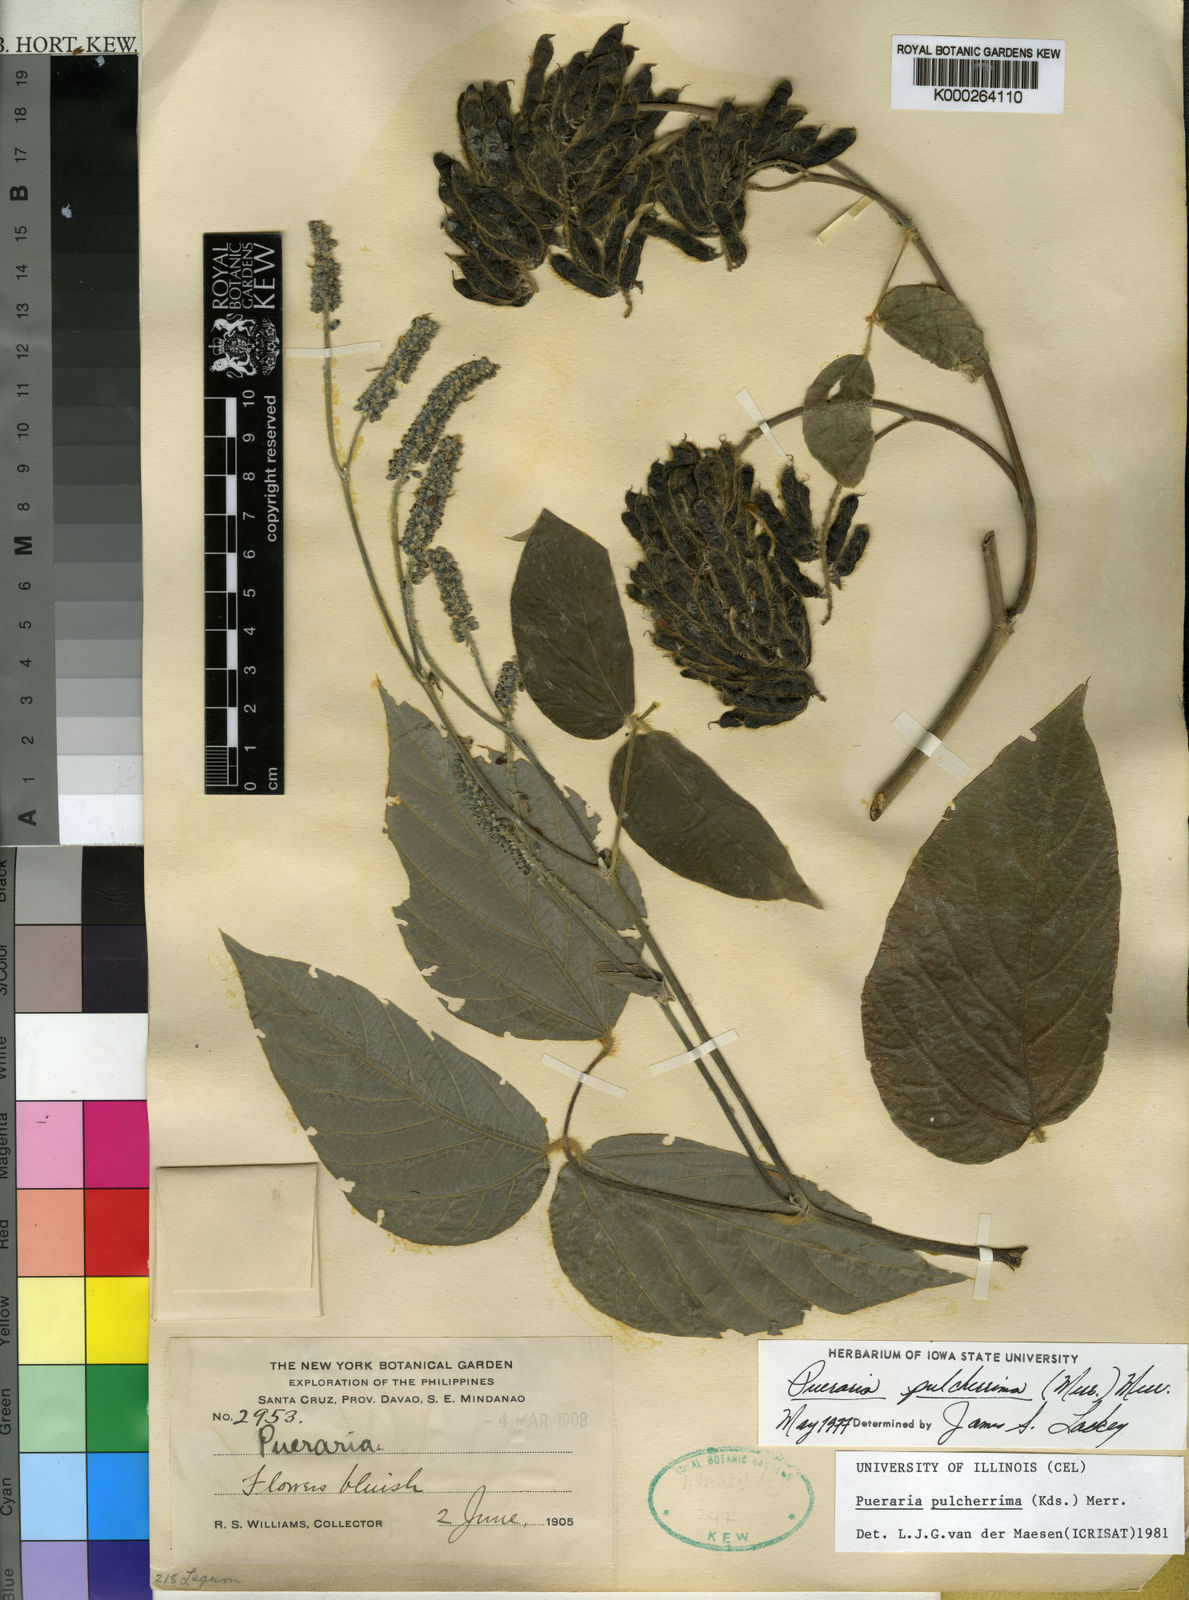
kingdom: Plantae
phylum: Tracheophyta
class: Magnoliopsida
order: Fabales
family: Fabaceae
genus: Pueraria
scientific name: Pueraria pulcherrima
